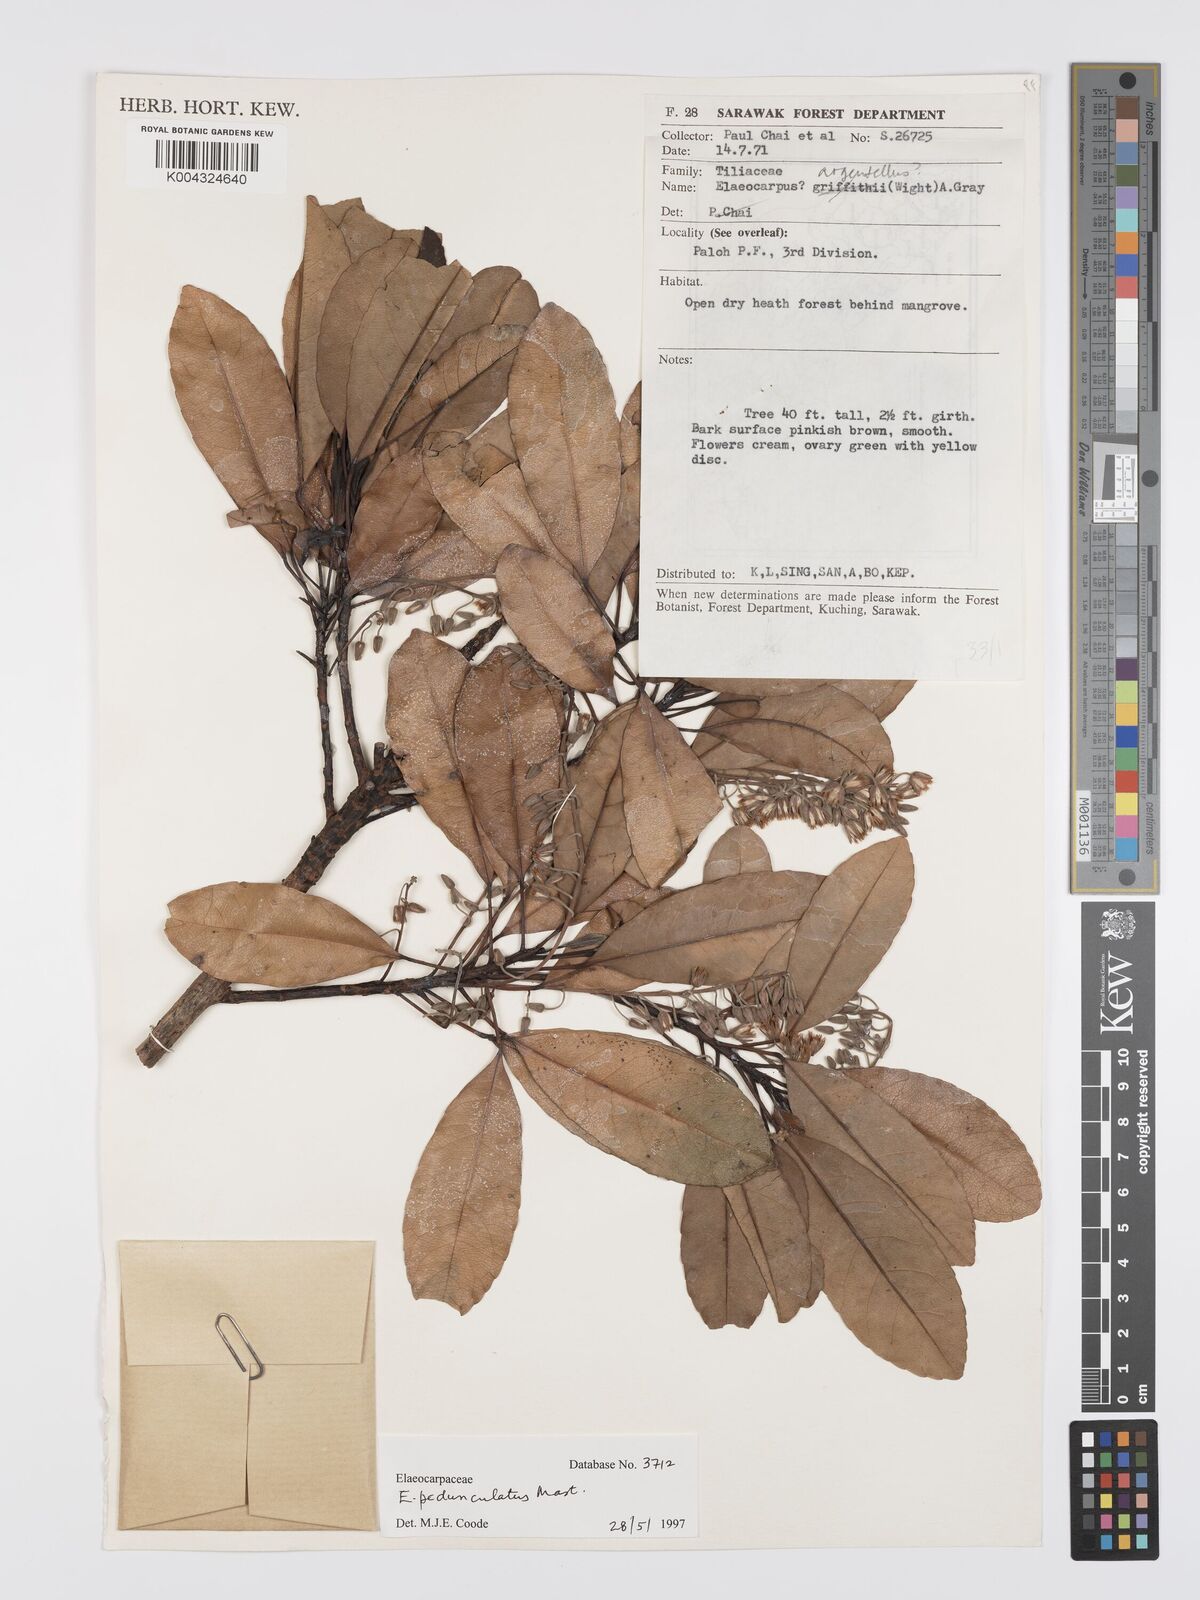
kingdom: Plantae
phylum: Tracheophyta
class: Magnoliopsida
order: Oxalidales
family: Elaeocarpaceae
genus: Elaeocarpus
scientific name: Elaeocarpus pedunculatus
